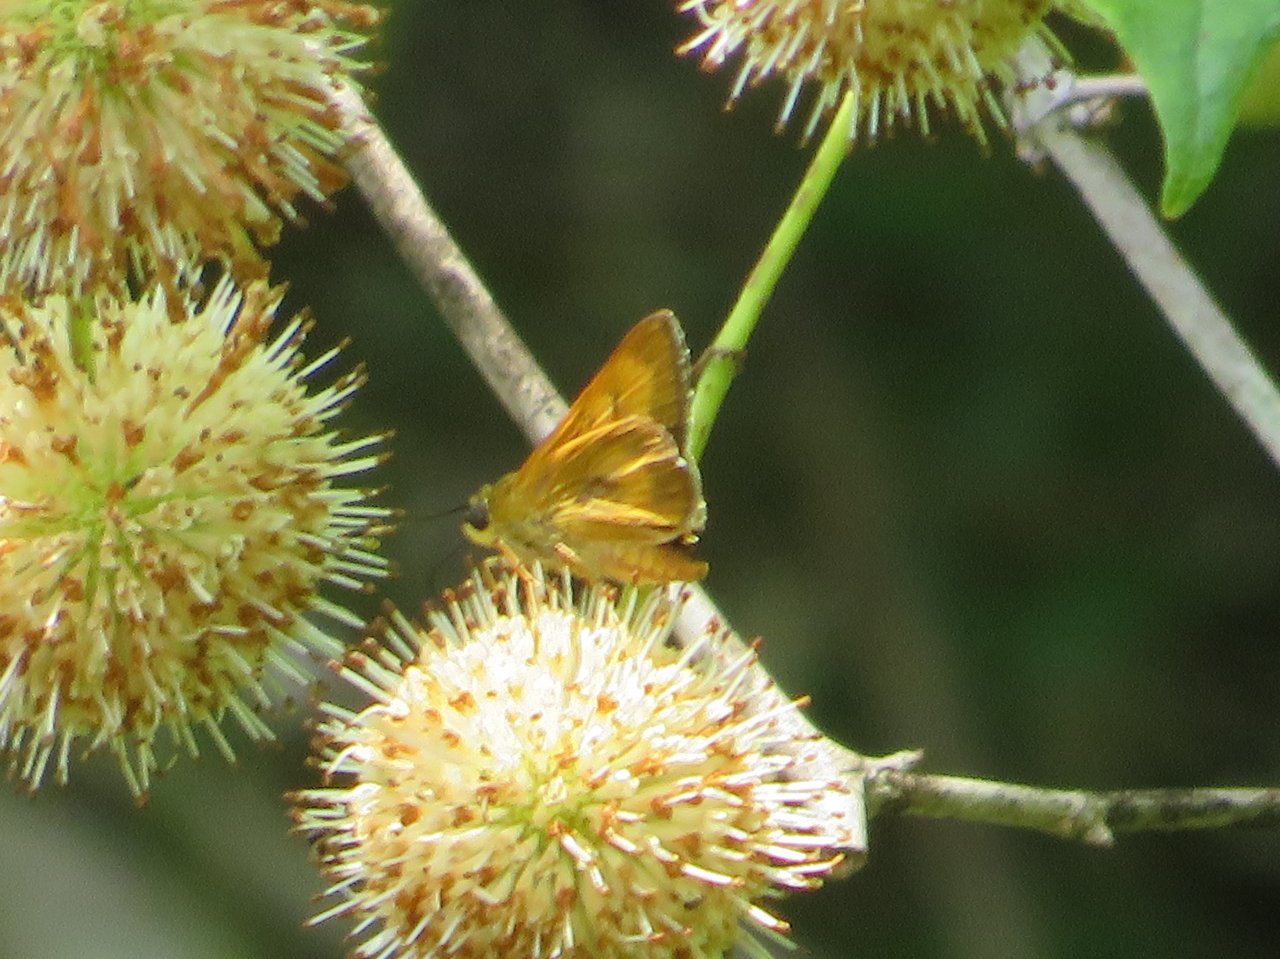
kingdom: Animalia
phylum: Arthropoda
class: Insecta
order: Lepidoptera
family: Hesperiidae
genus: Problema
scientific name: Problema byssus
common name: Byssus Skipper
